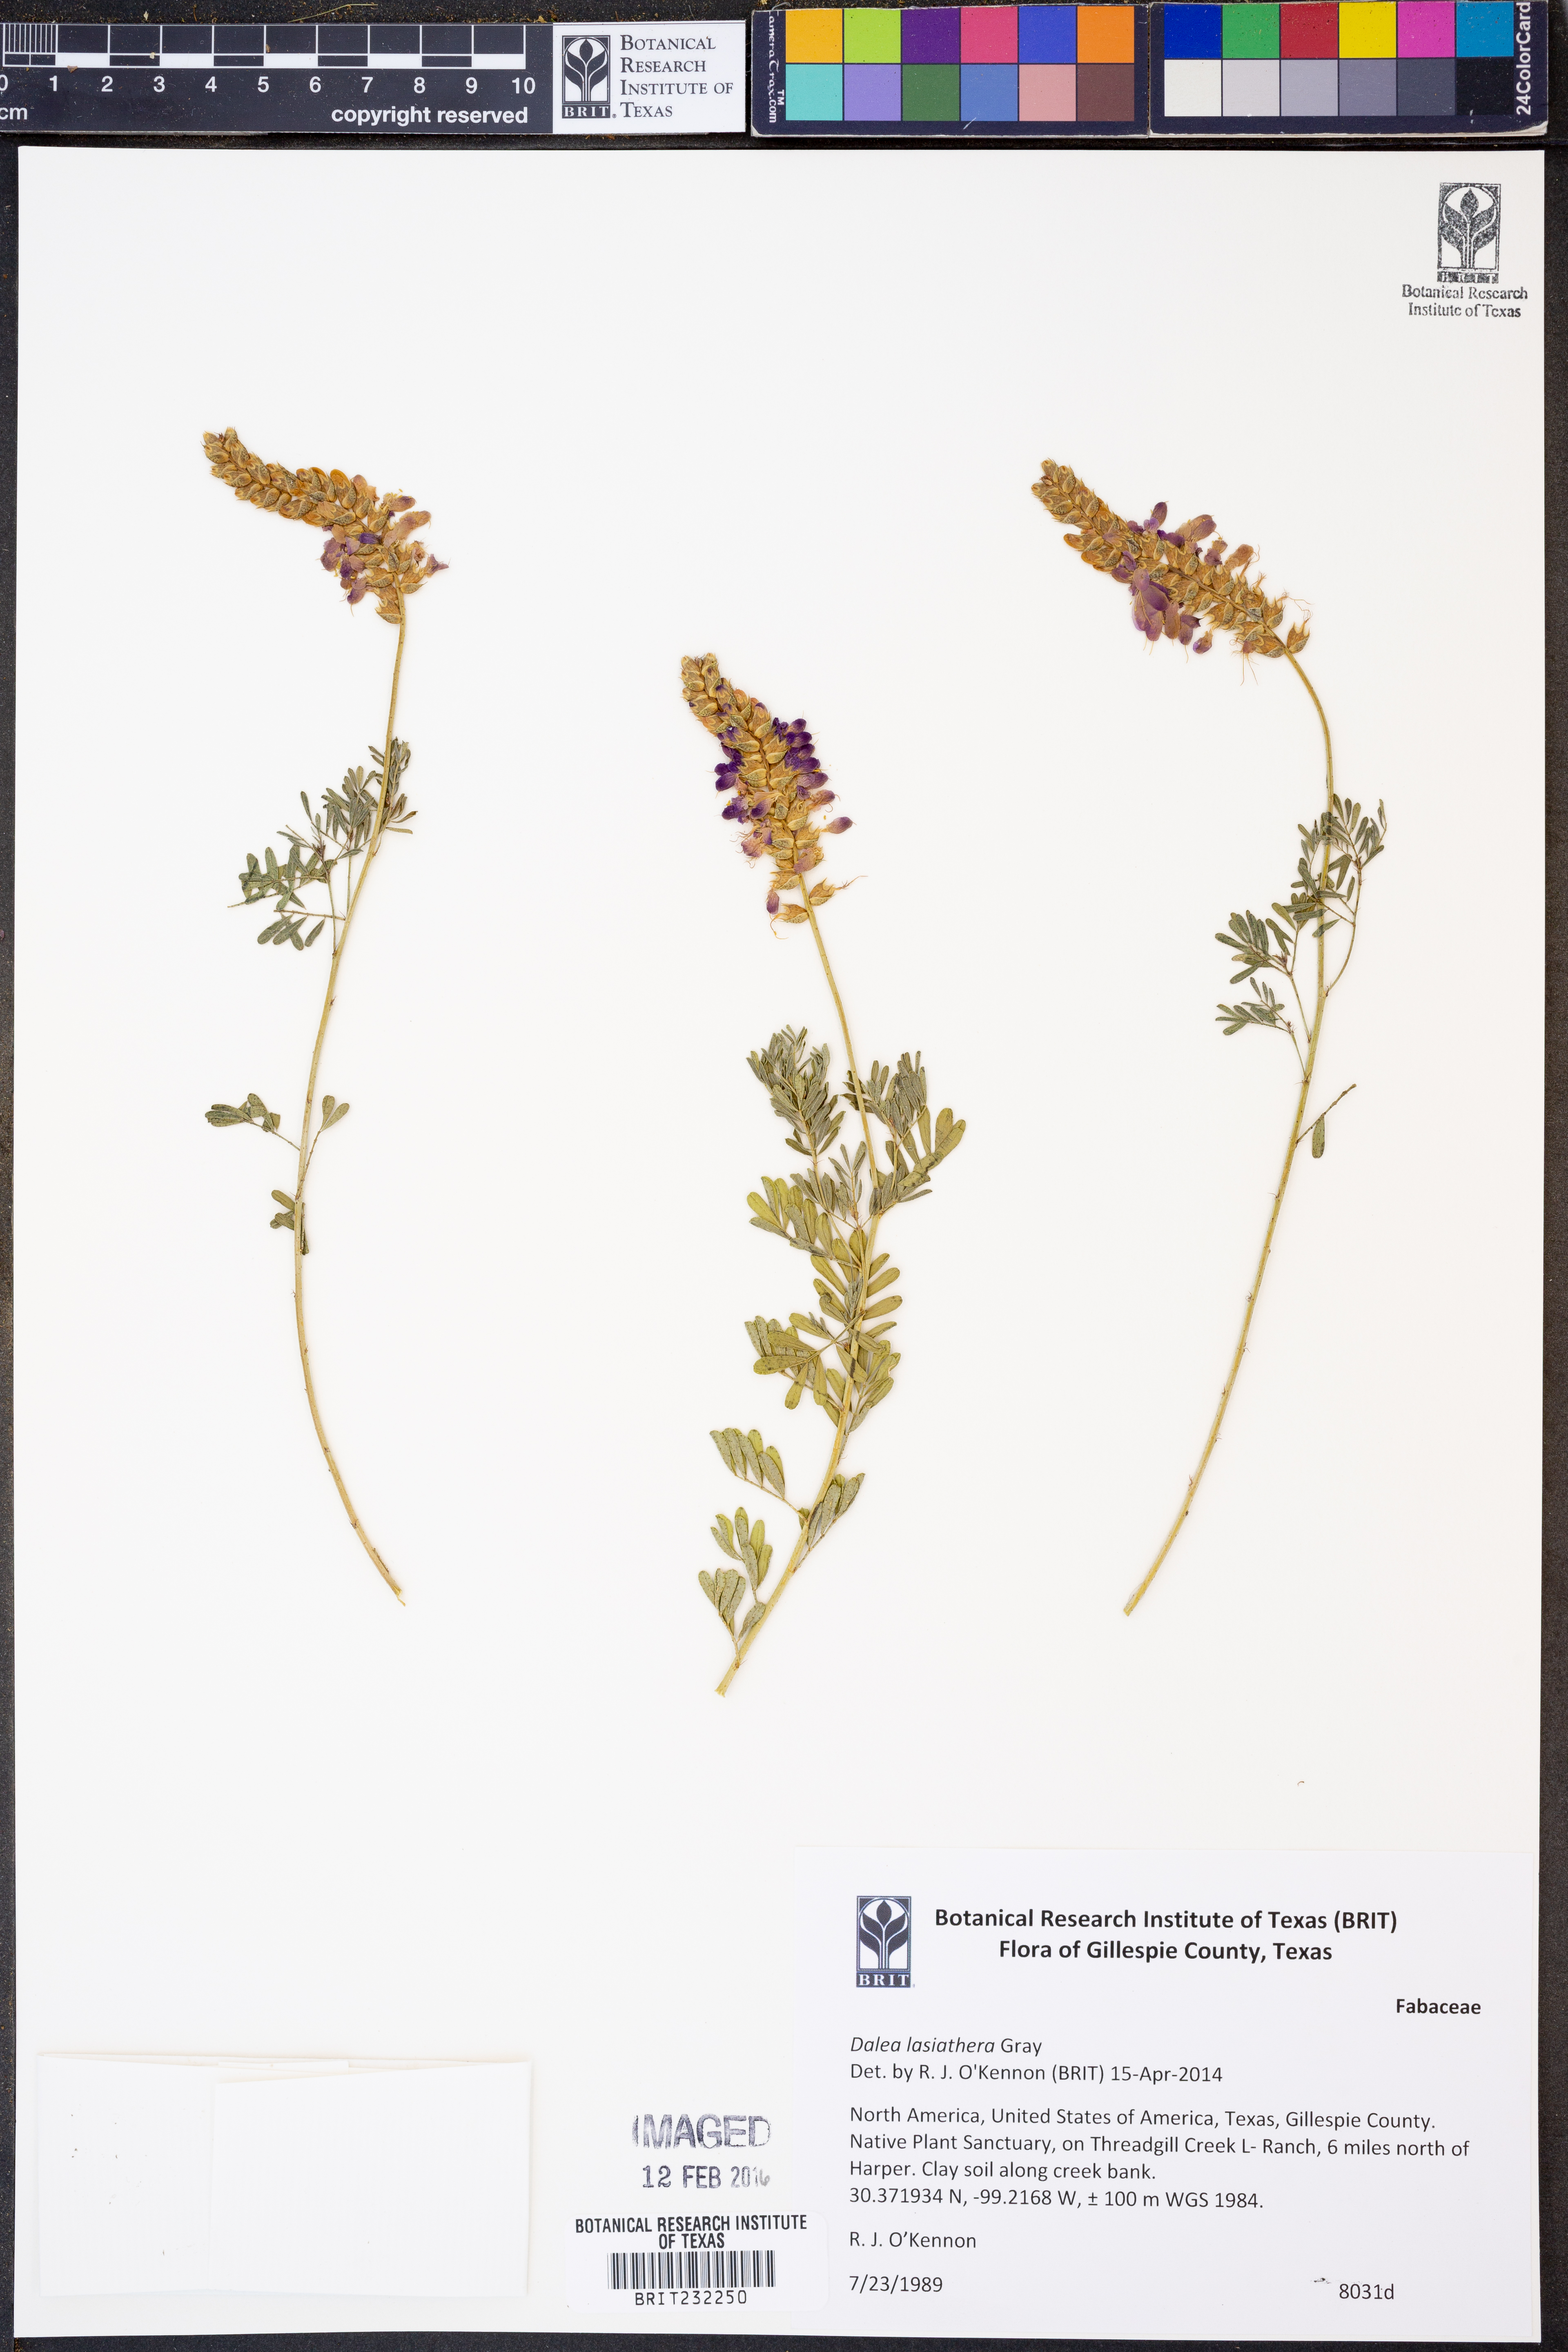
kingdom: Plantae
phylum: Tracheophyta
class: Magnoliopsida
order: Fabales
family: Fabaceae
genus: Dalea
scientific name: Dalea lasiathera
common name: Purple prairie-clover
